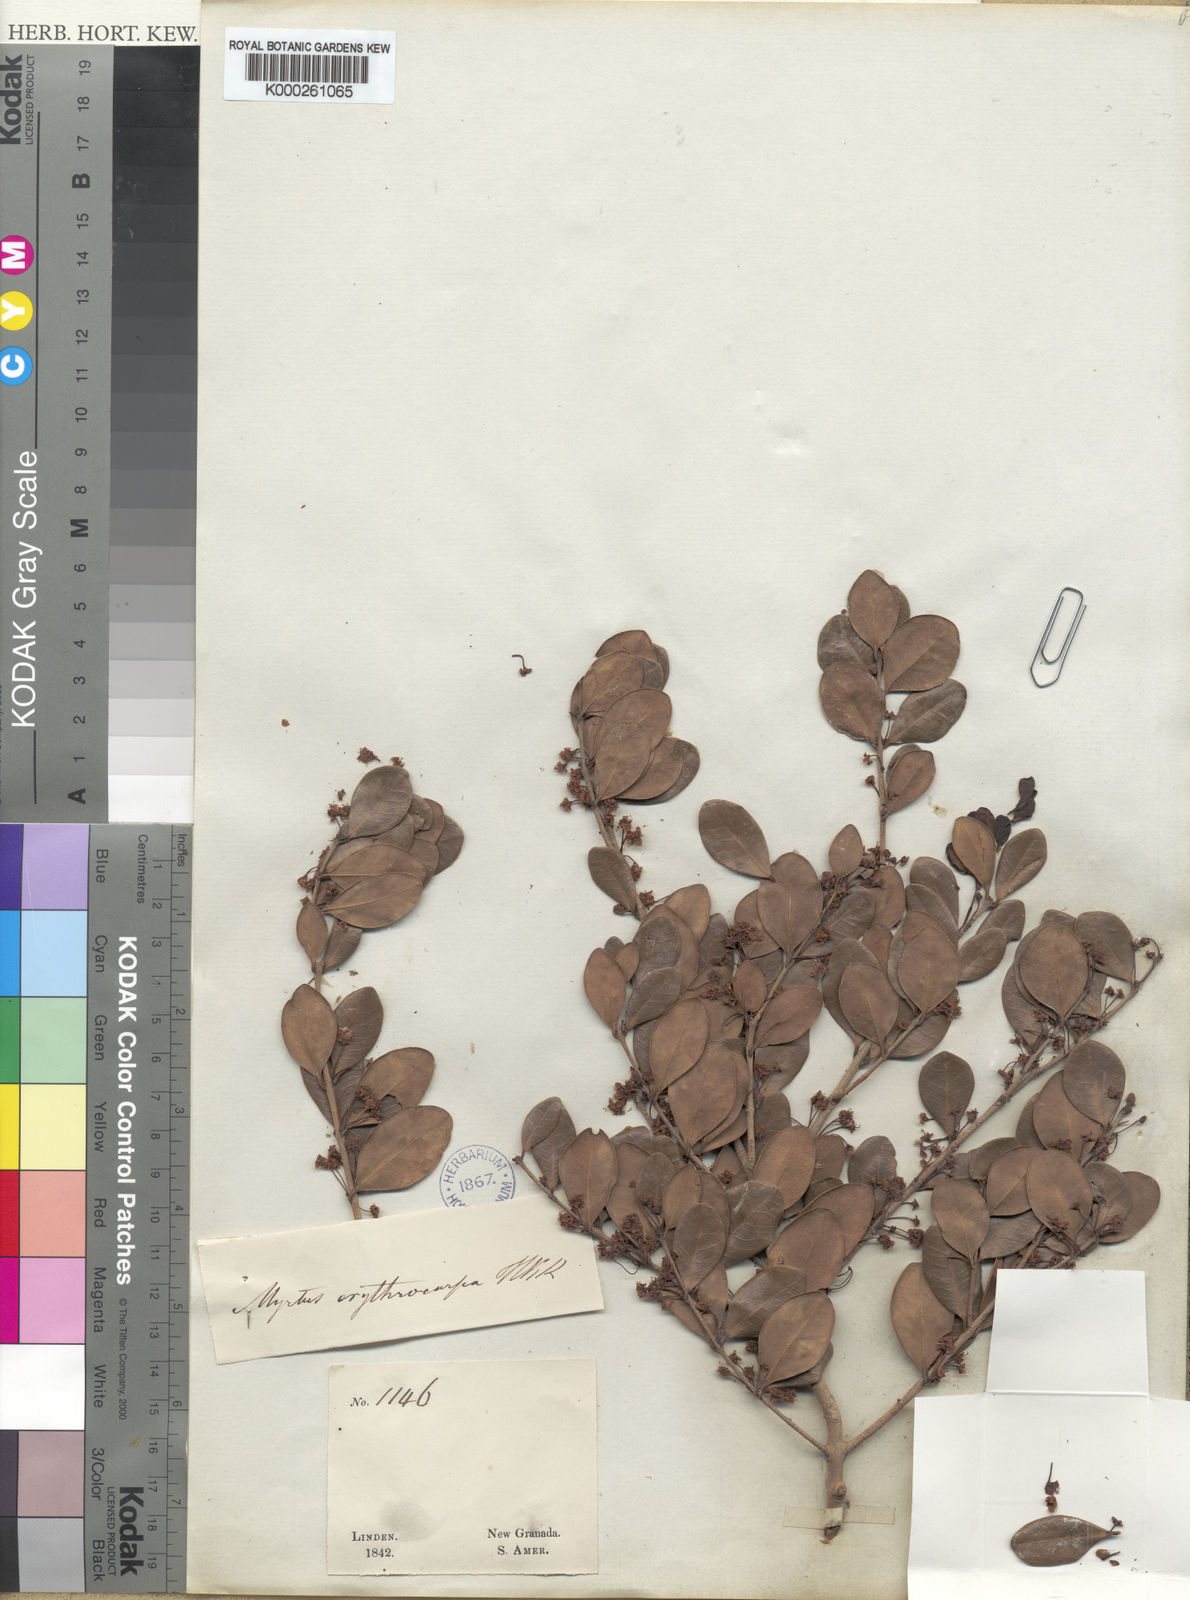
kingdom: Plantae
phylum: Tracheophyta
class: Magnoliopsida
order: Myrtales
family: Myrtaceae
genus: Myrtus
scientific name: Myrtus
